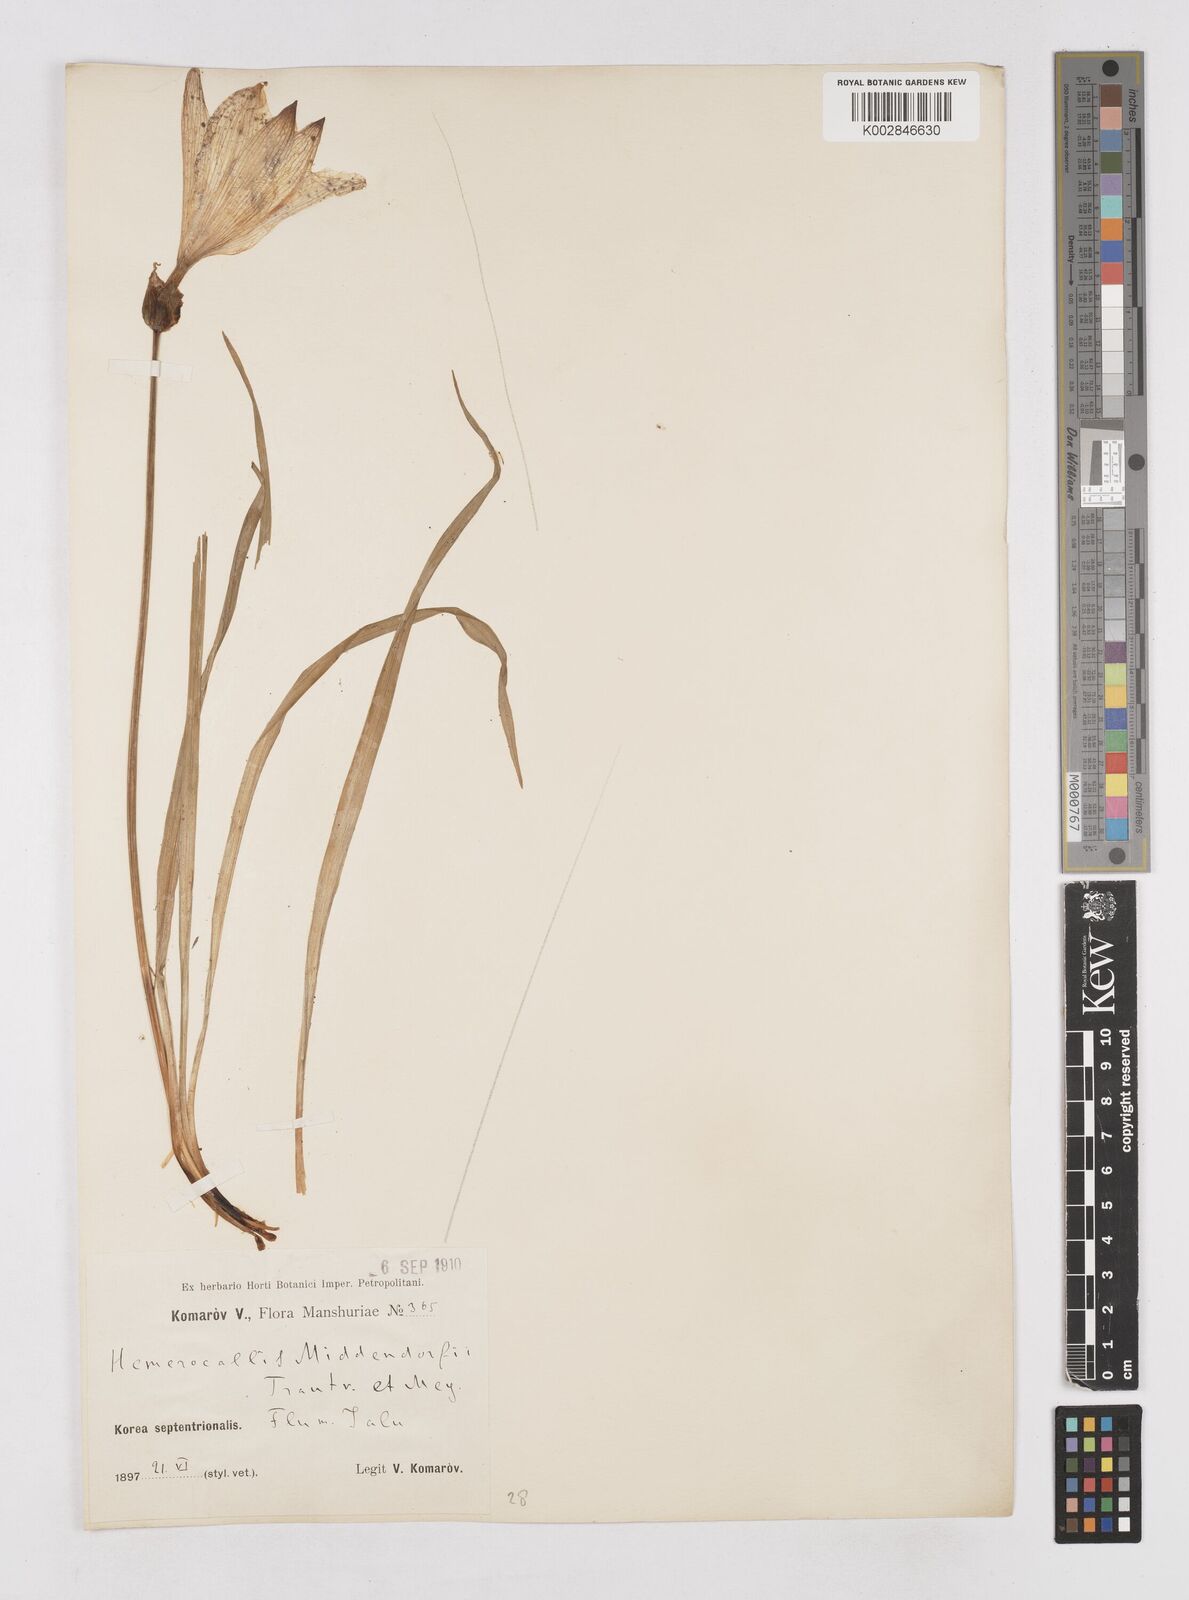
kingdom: Plantae
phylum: Tracheophyta
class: Liliopsida
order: Asparagales
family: Asphodelaceae
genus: Hemerocallis
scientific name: Hemerocallis middendorffii
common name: Amur day-lily
